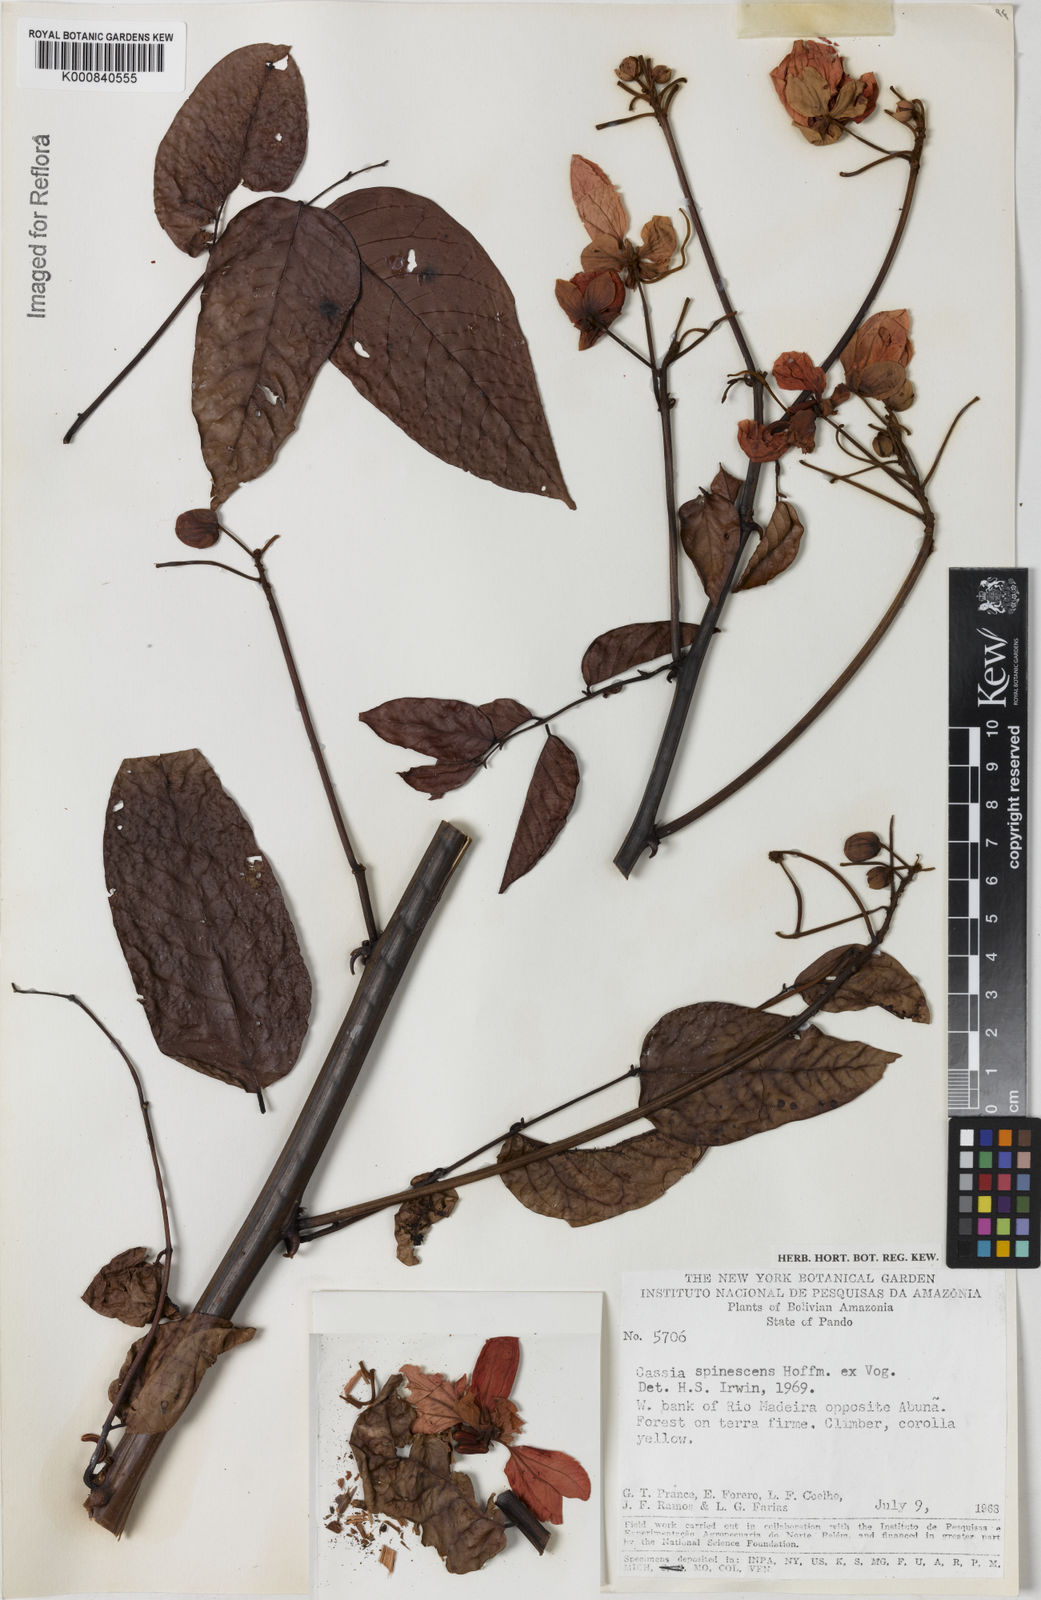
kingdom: Plantae
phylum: Tracheophyta
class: Magnoliopsida
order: Fabales
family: Fabaceae
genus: Senna
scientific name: Senna spinescens
